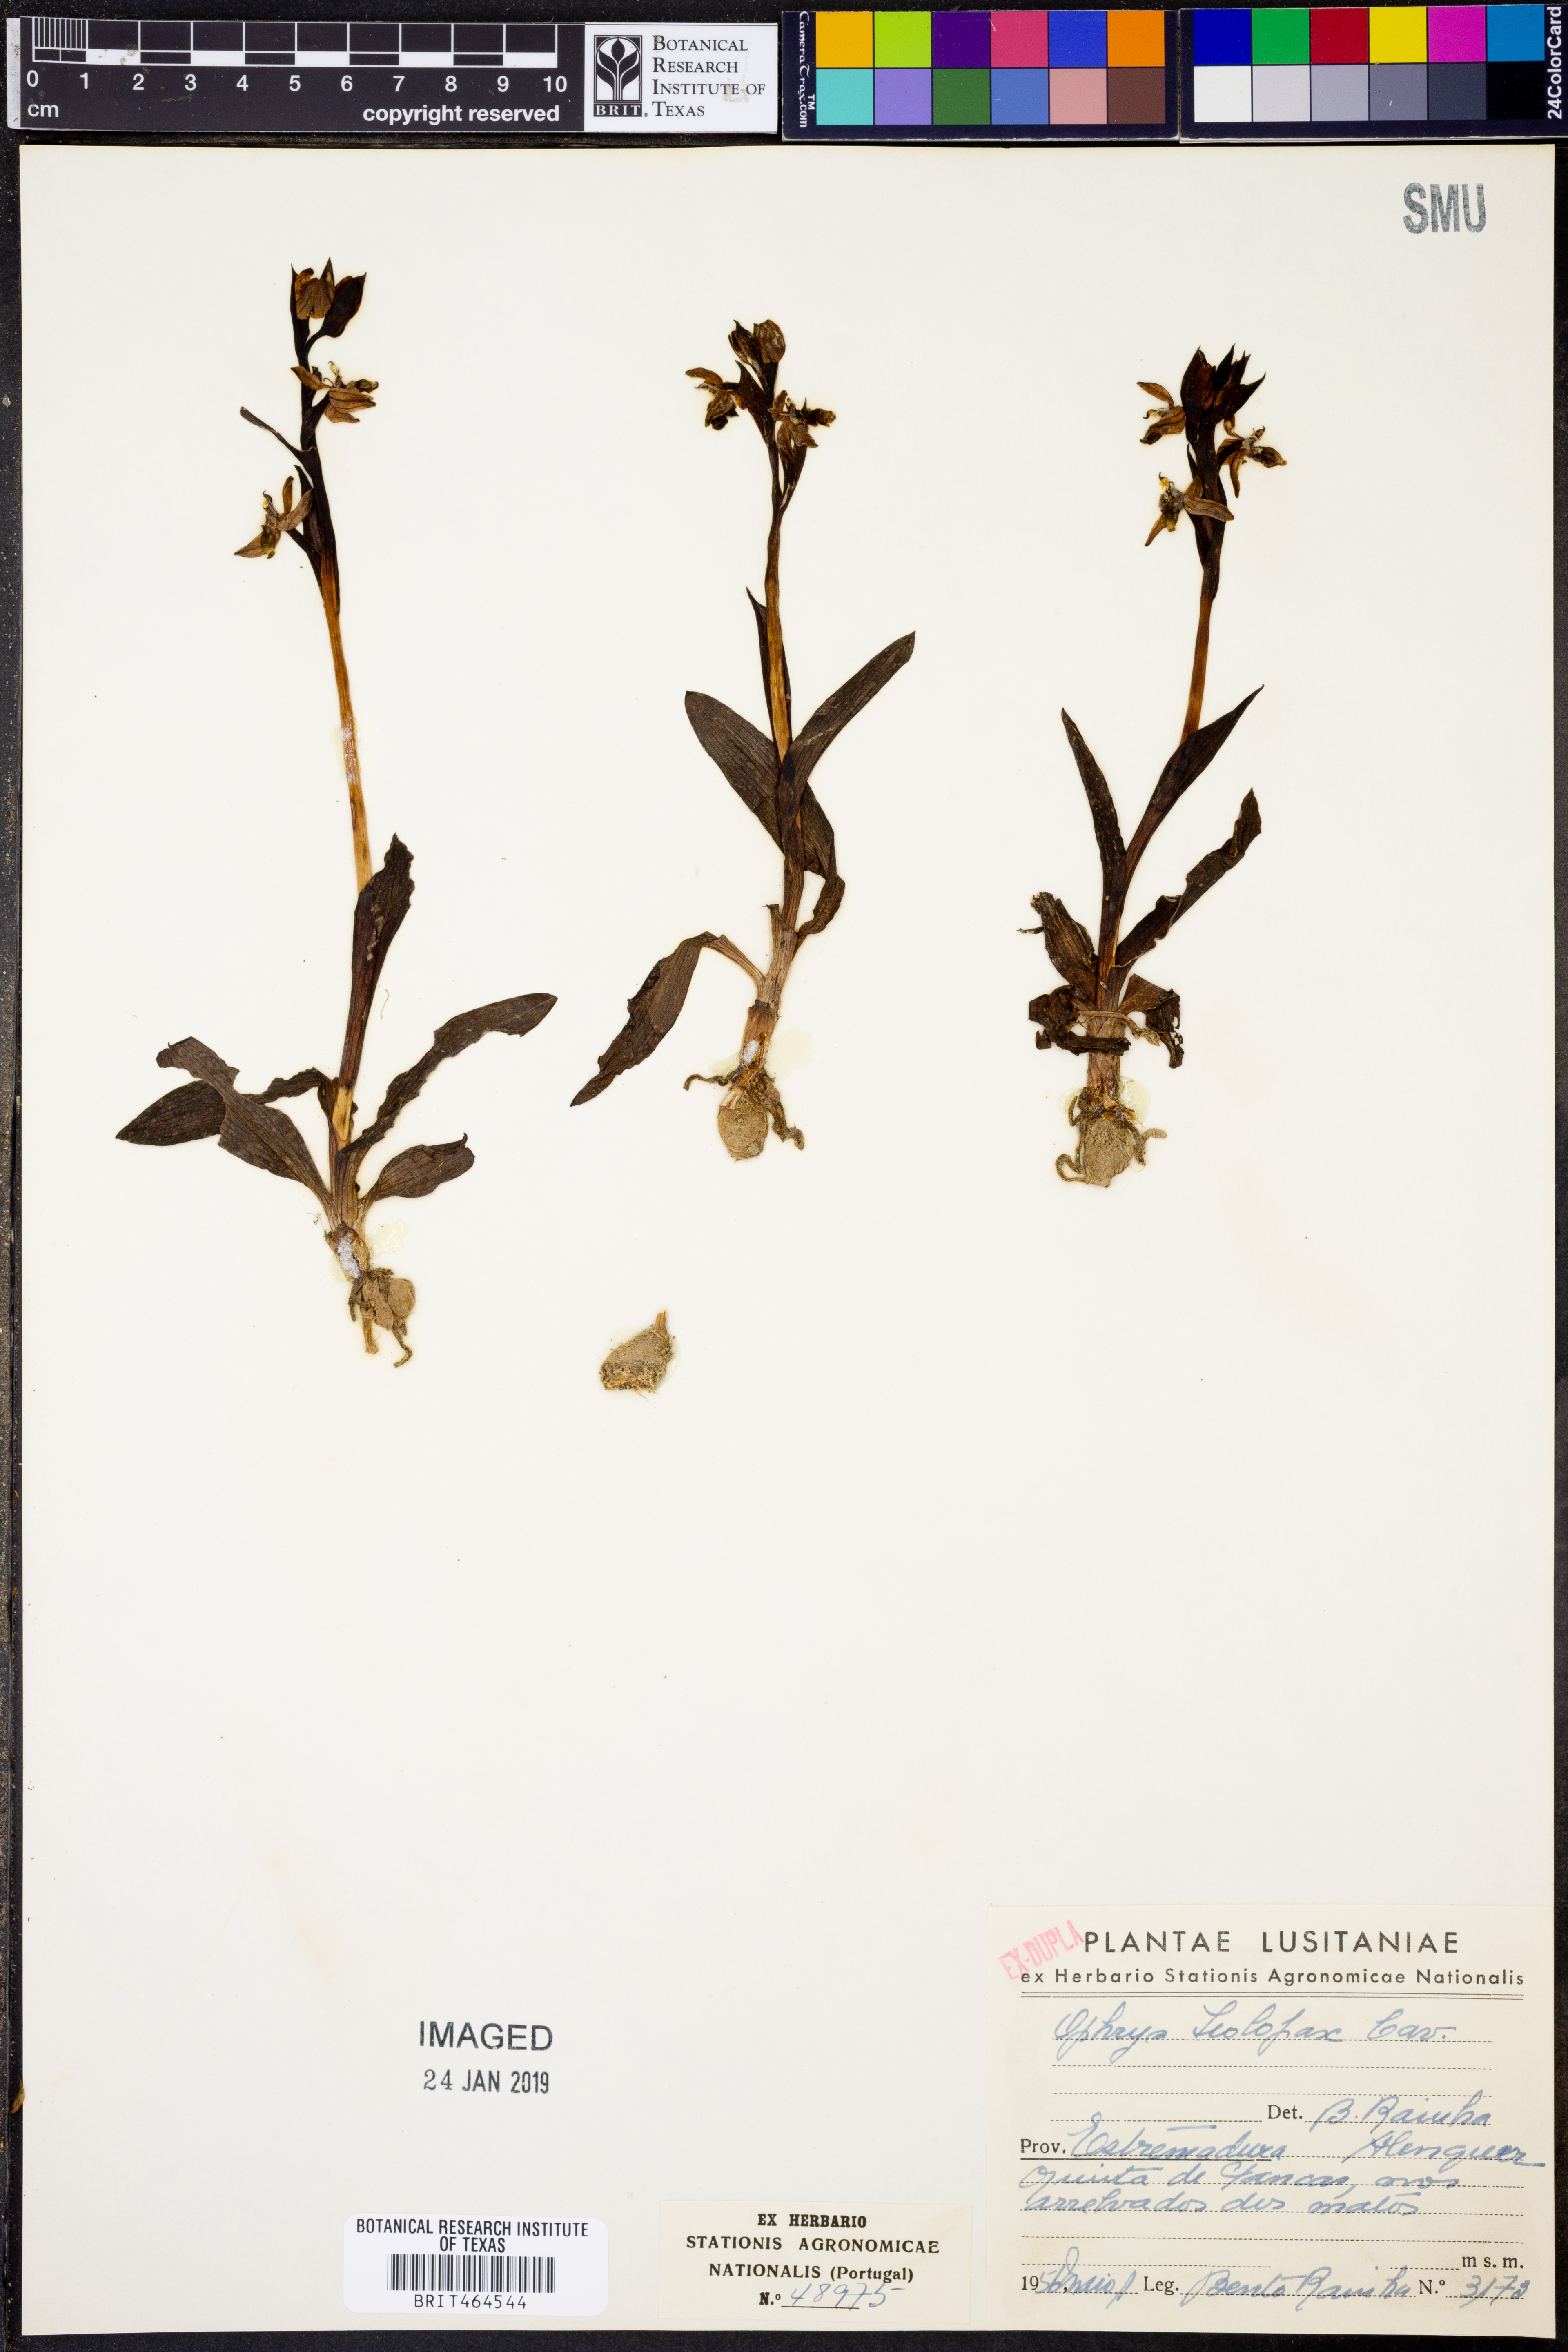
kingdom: Plantae
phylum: Tracheophyta
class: Liliopsida
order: Asparagales
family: Orchidaceae
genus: Ophrys
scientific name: Ophrys
